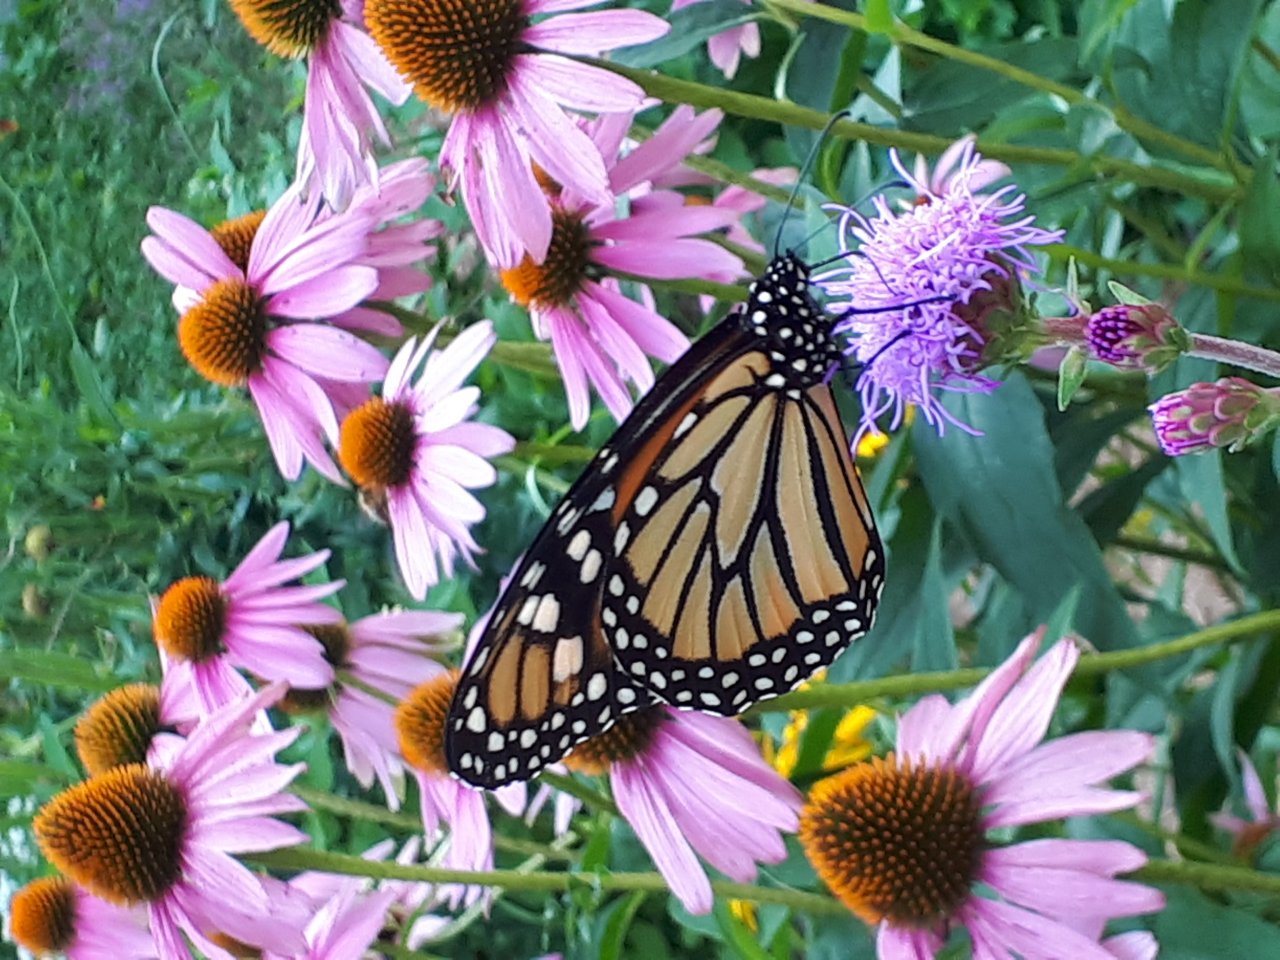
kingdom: Animalia
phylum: Arthropoda
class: Insecta
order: Lepidoptera
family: Nymphalidae
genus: Danaus
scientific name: Danaus plexippus
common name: Monarch
